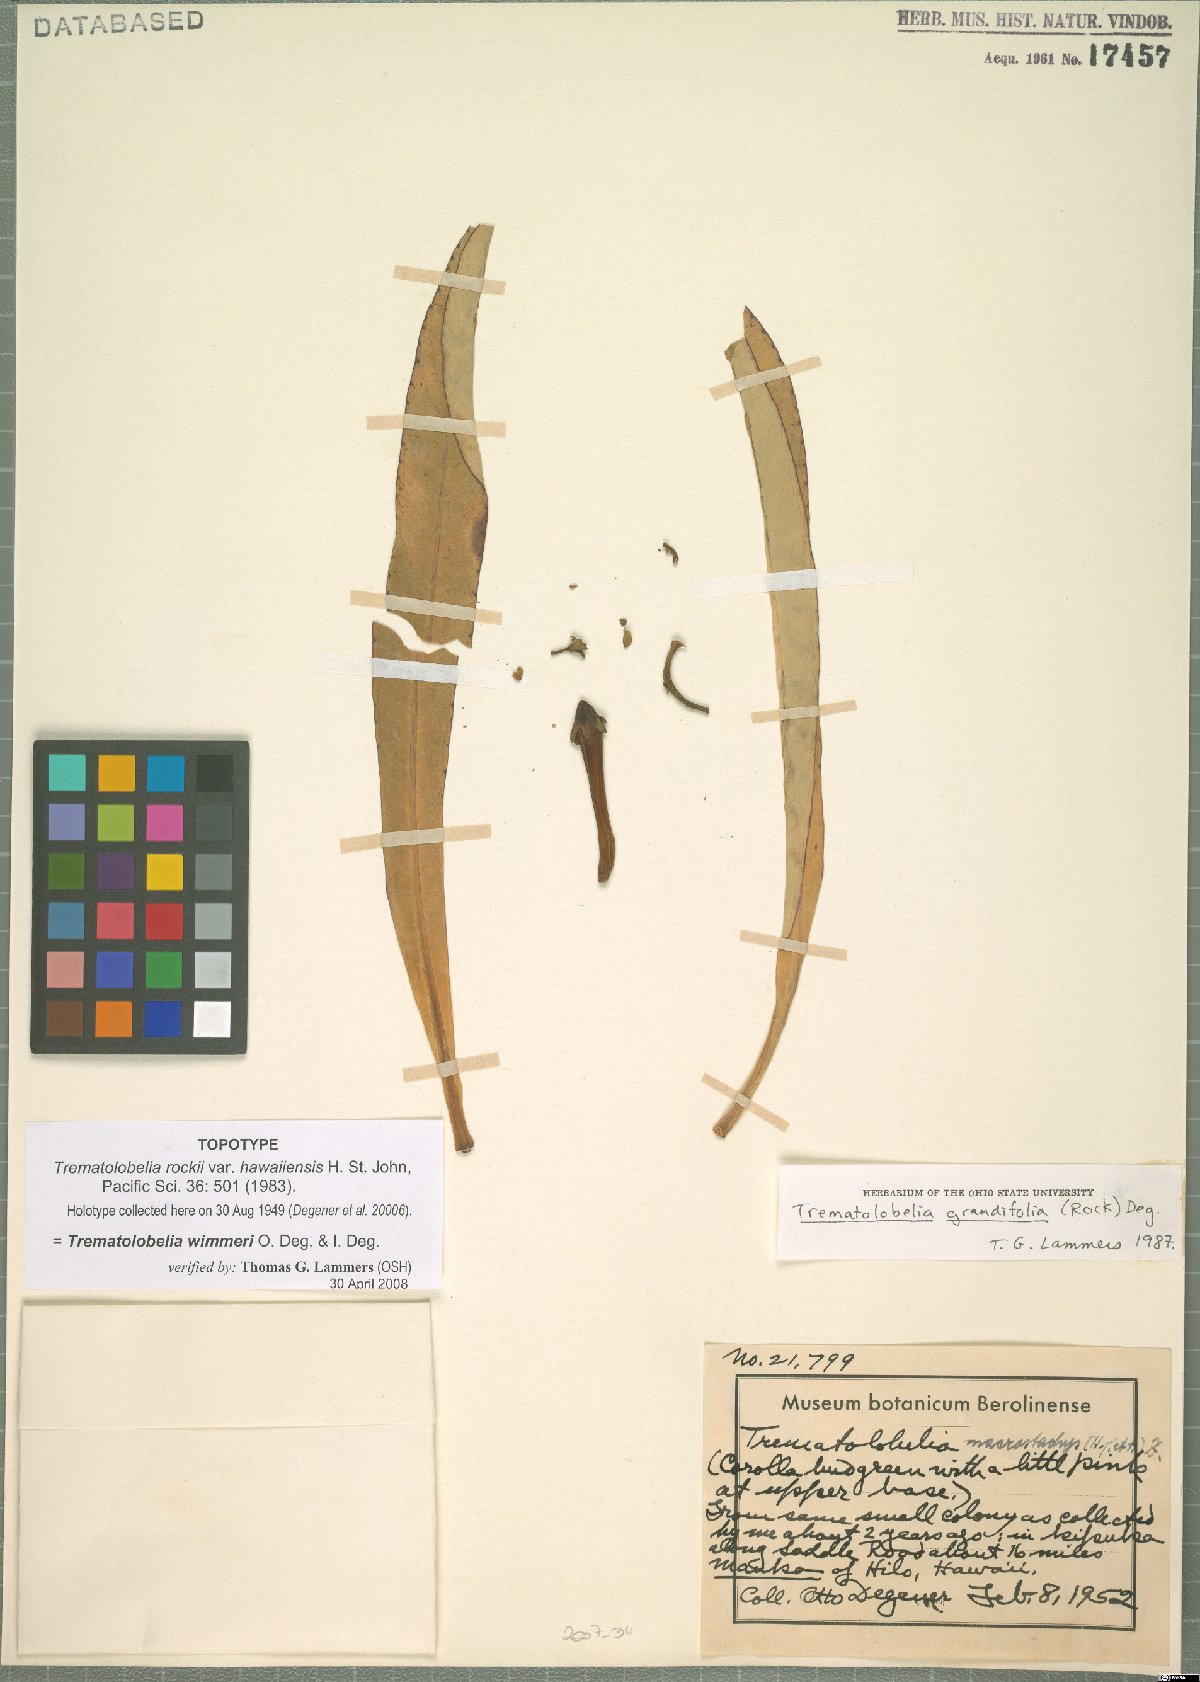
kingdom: Plantae
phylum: Tracheophyta
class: Magnoliopsida
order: Asterales
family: Campanulaceae
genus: Trematolobelia
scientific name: Trematolobelia wimmeri
